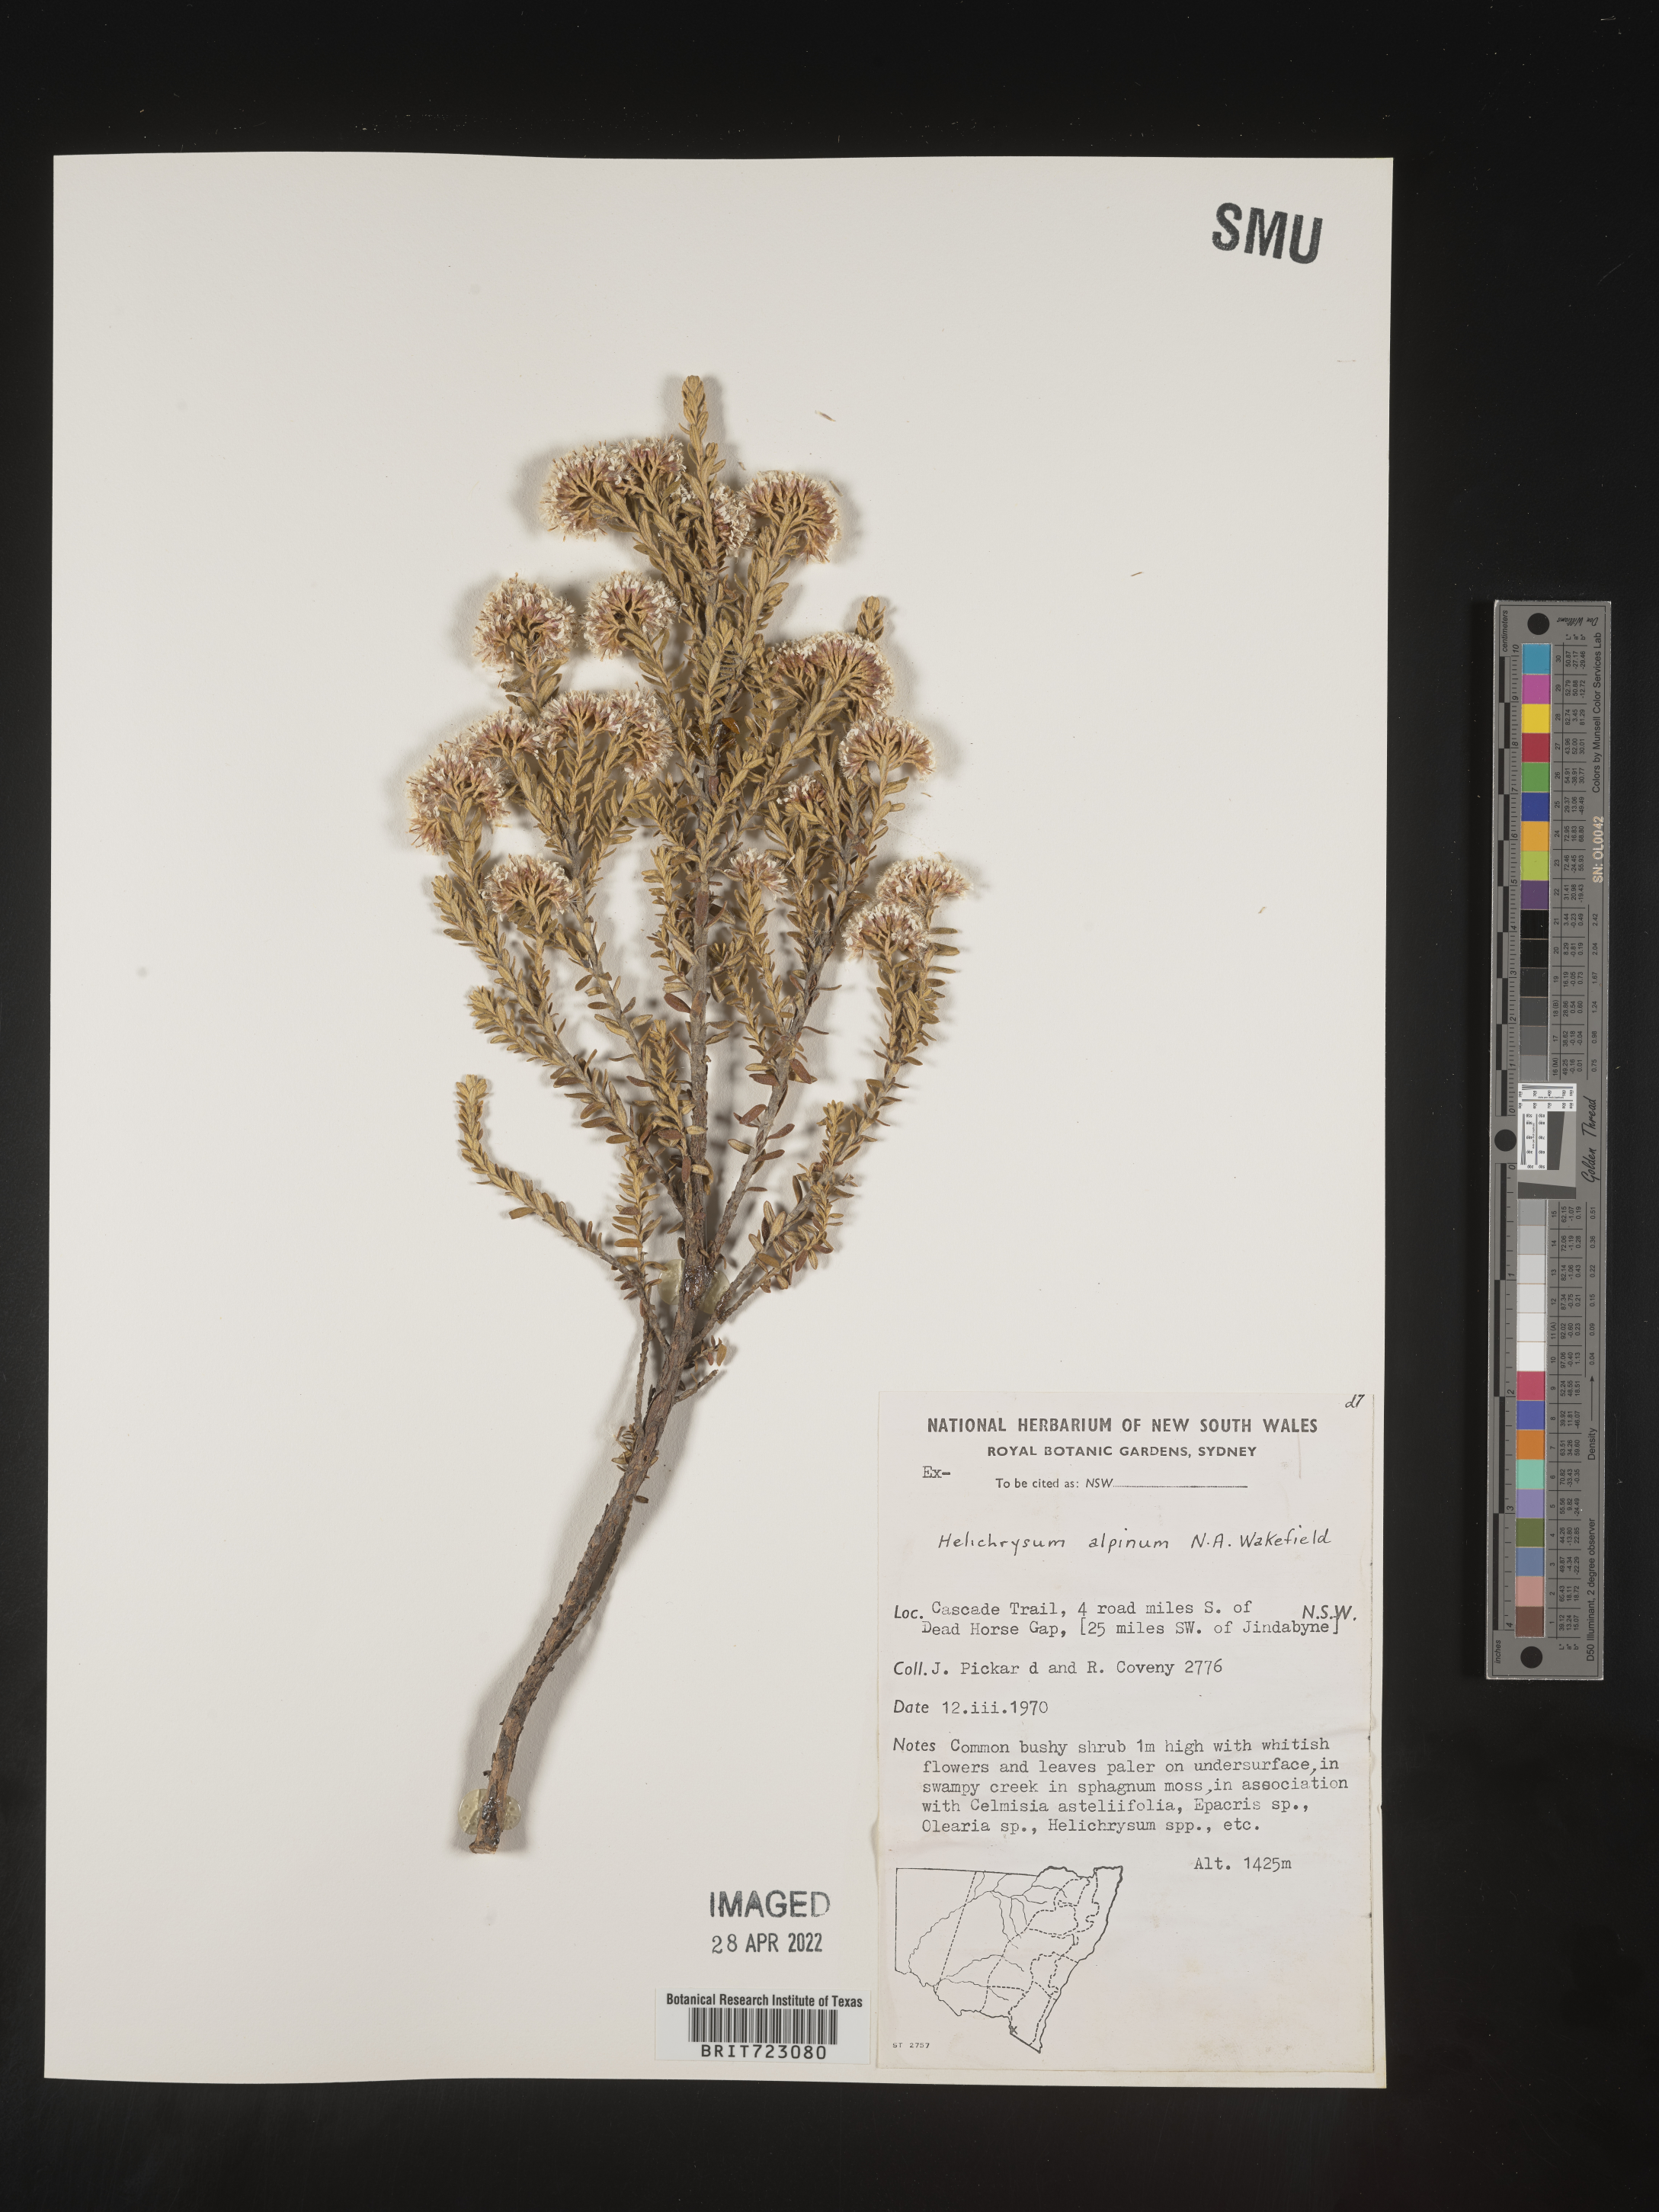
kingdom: Plantae
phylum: Tracheophyta
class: Magnoliopsida
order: Asterales
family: Asteraceae
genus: Helichrysum
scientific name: Helichrysum
